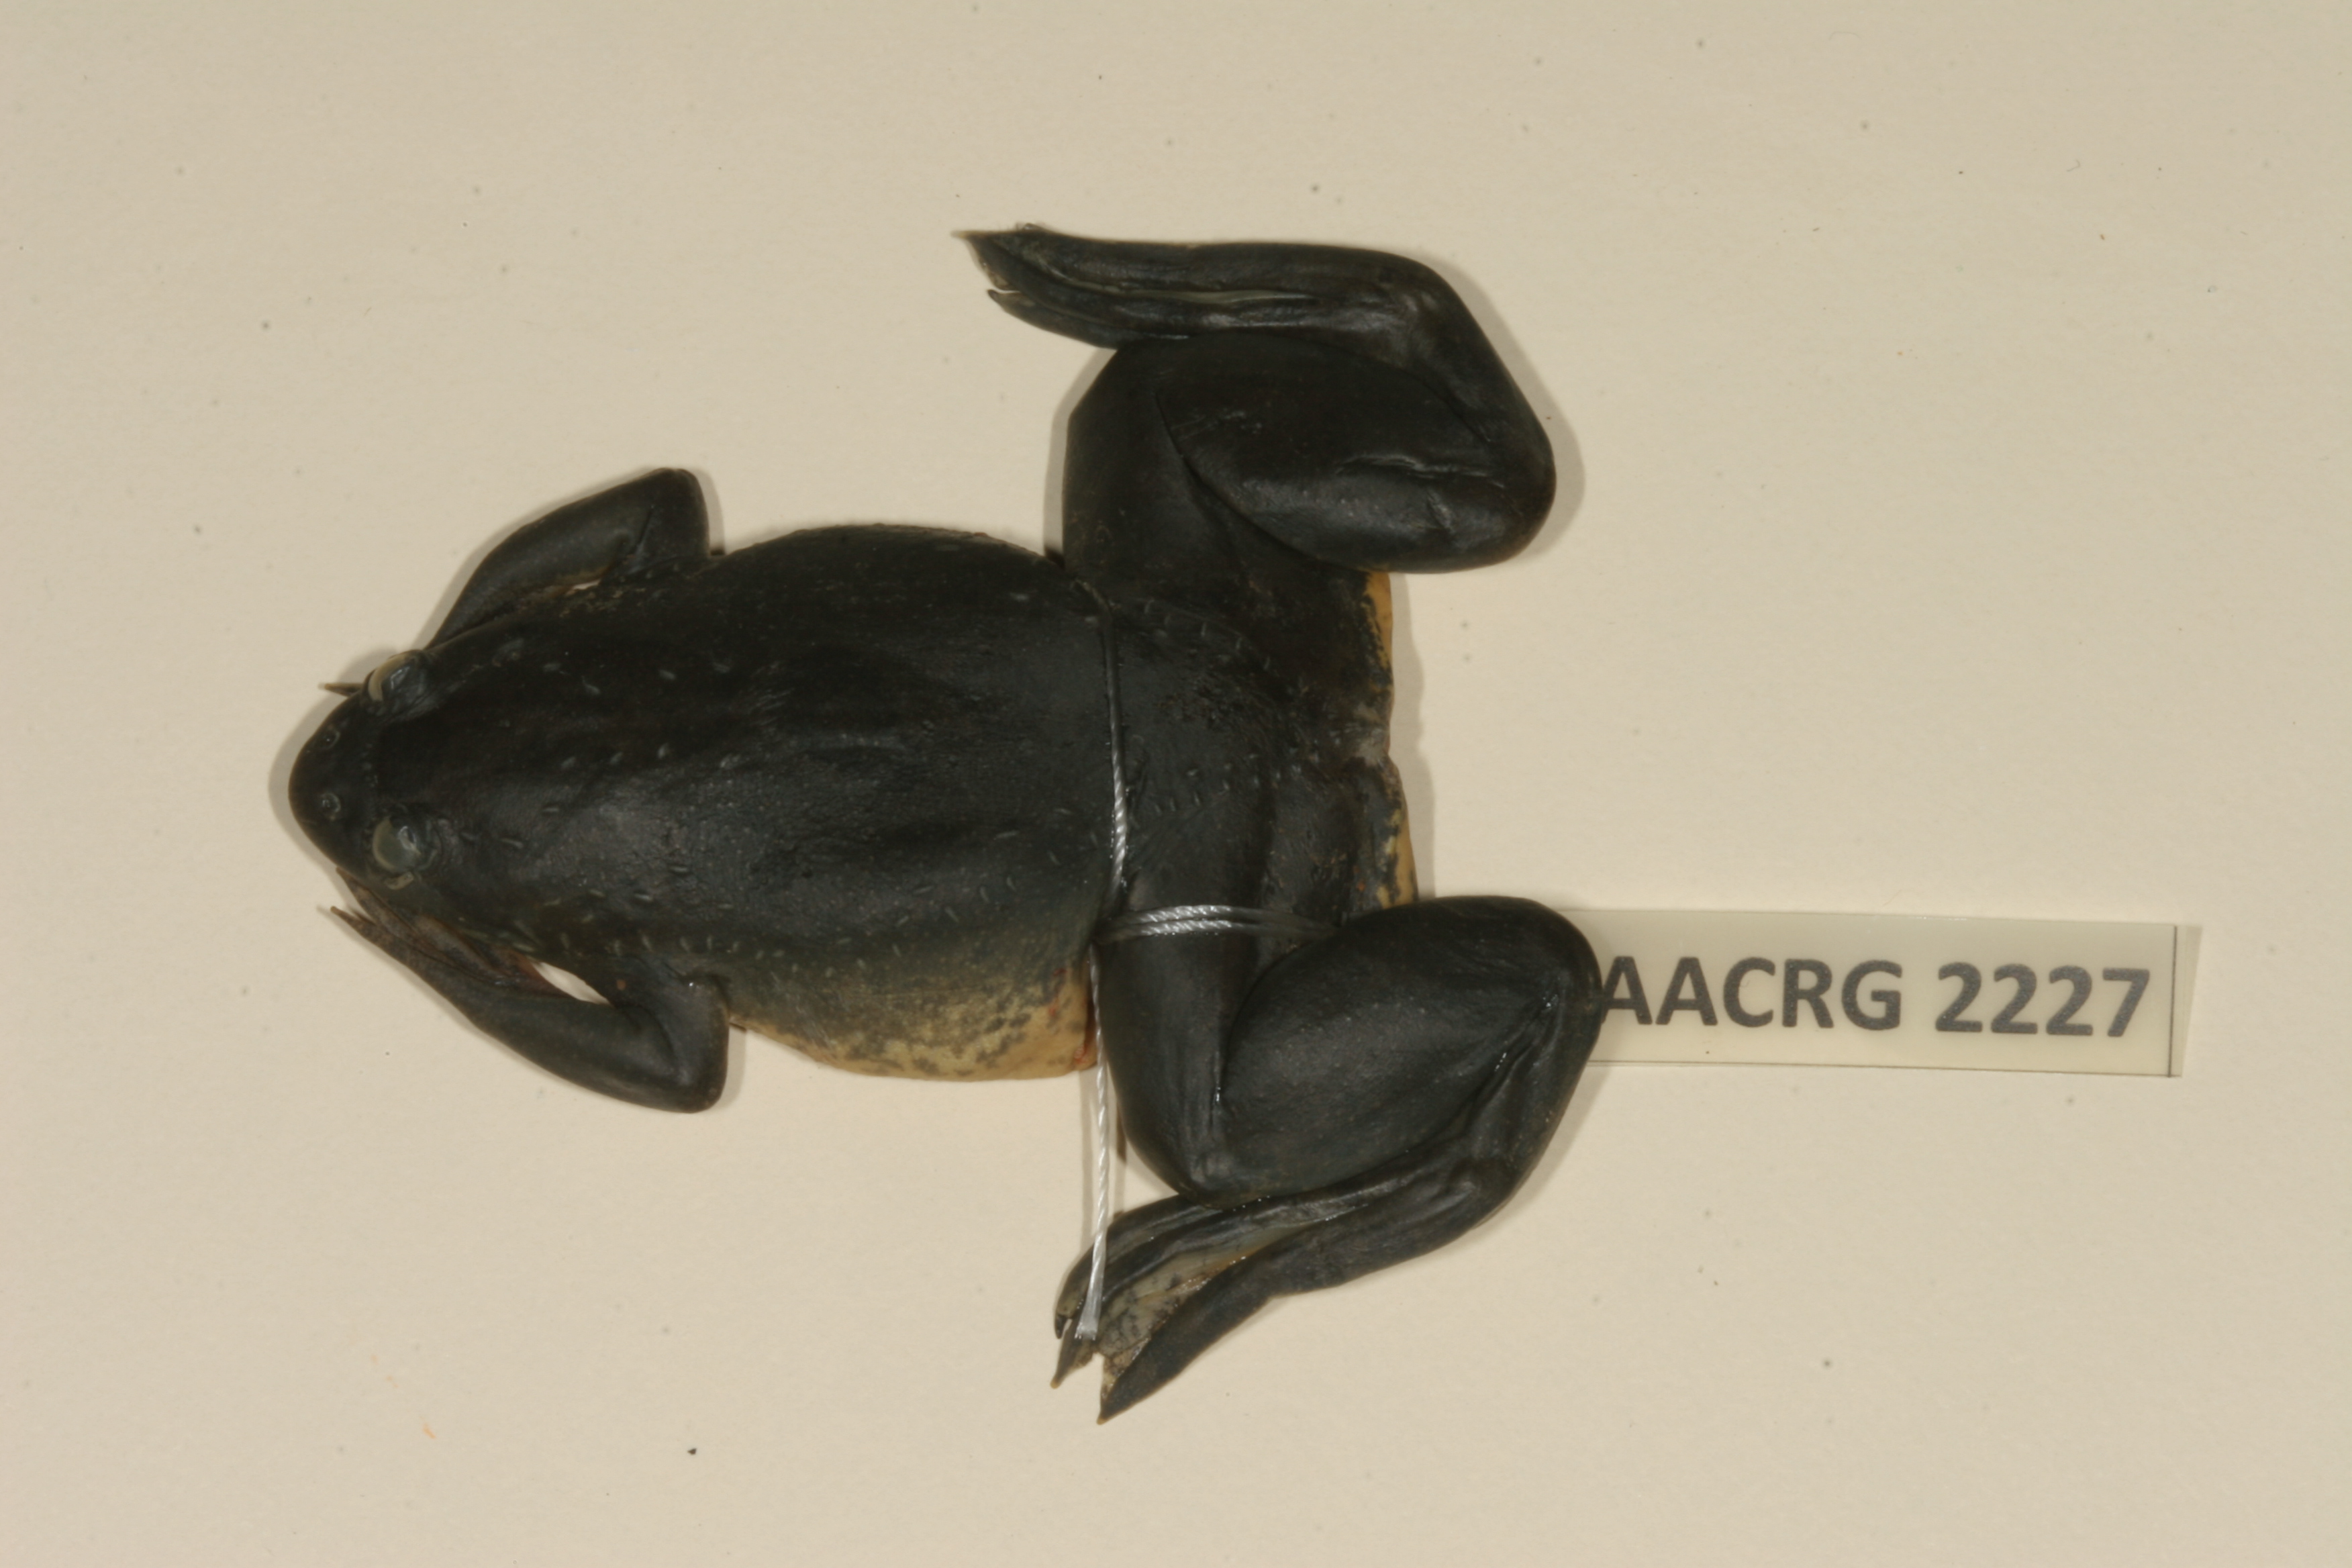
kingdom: Animalia
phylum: Chordata
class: Amphibia
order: Anura
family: Pipidae
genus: Xenopus
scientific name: Xenopus muelleri
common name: Muller's clawed frog
